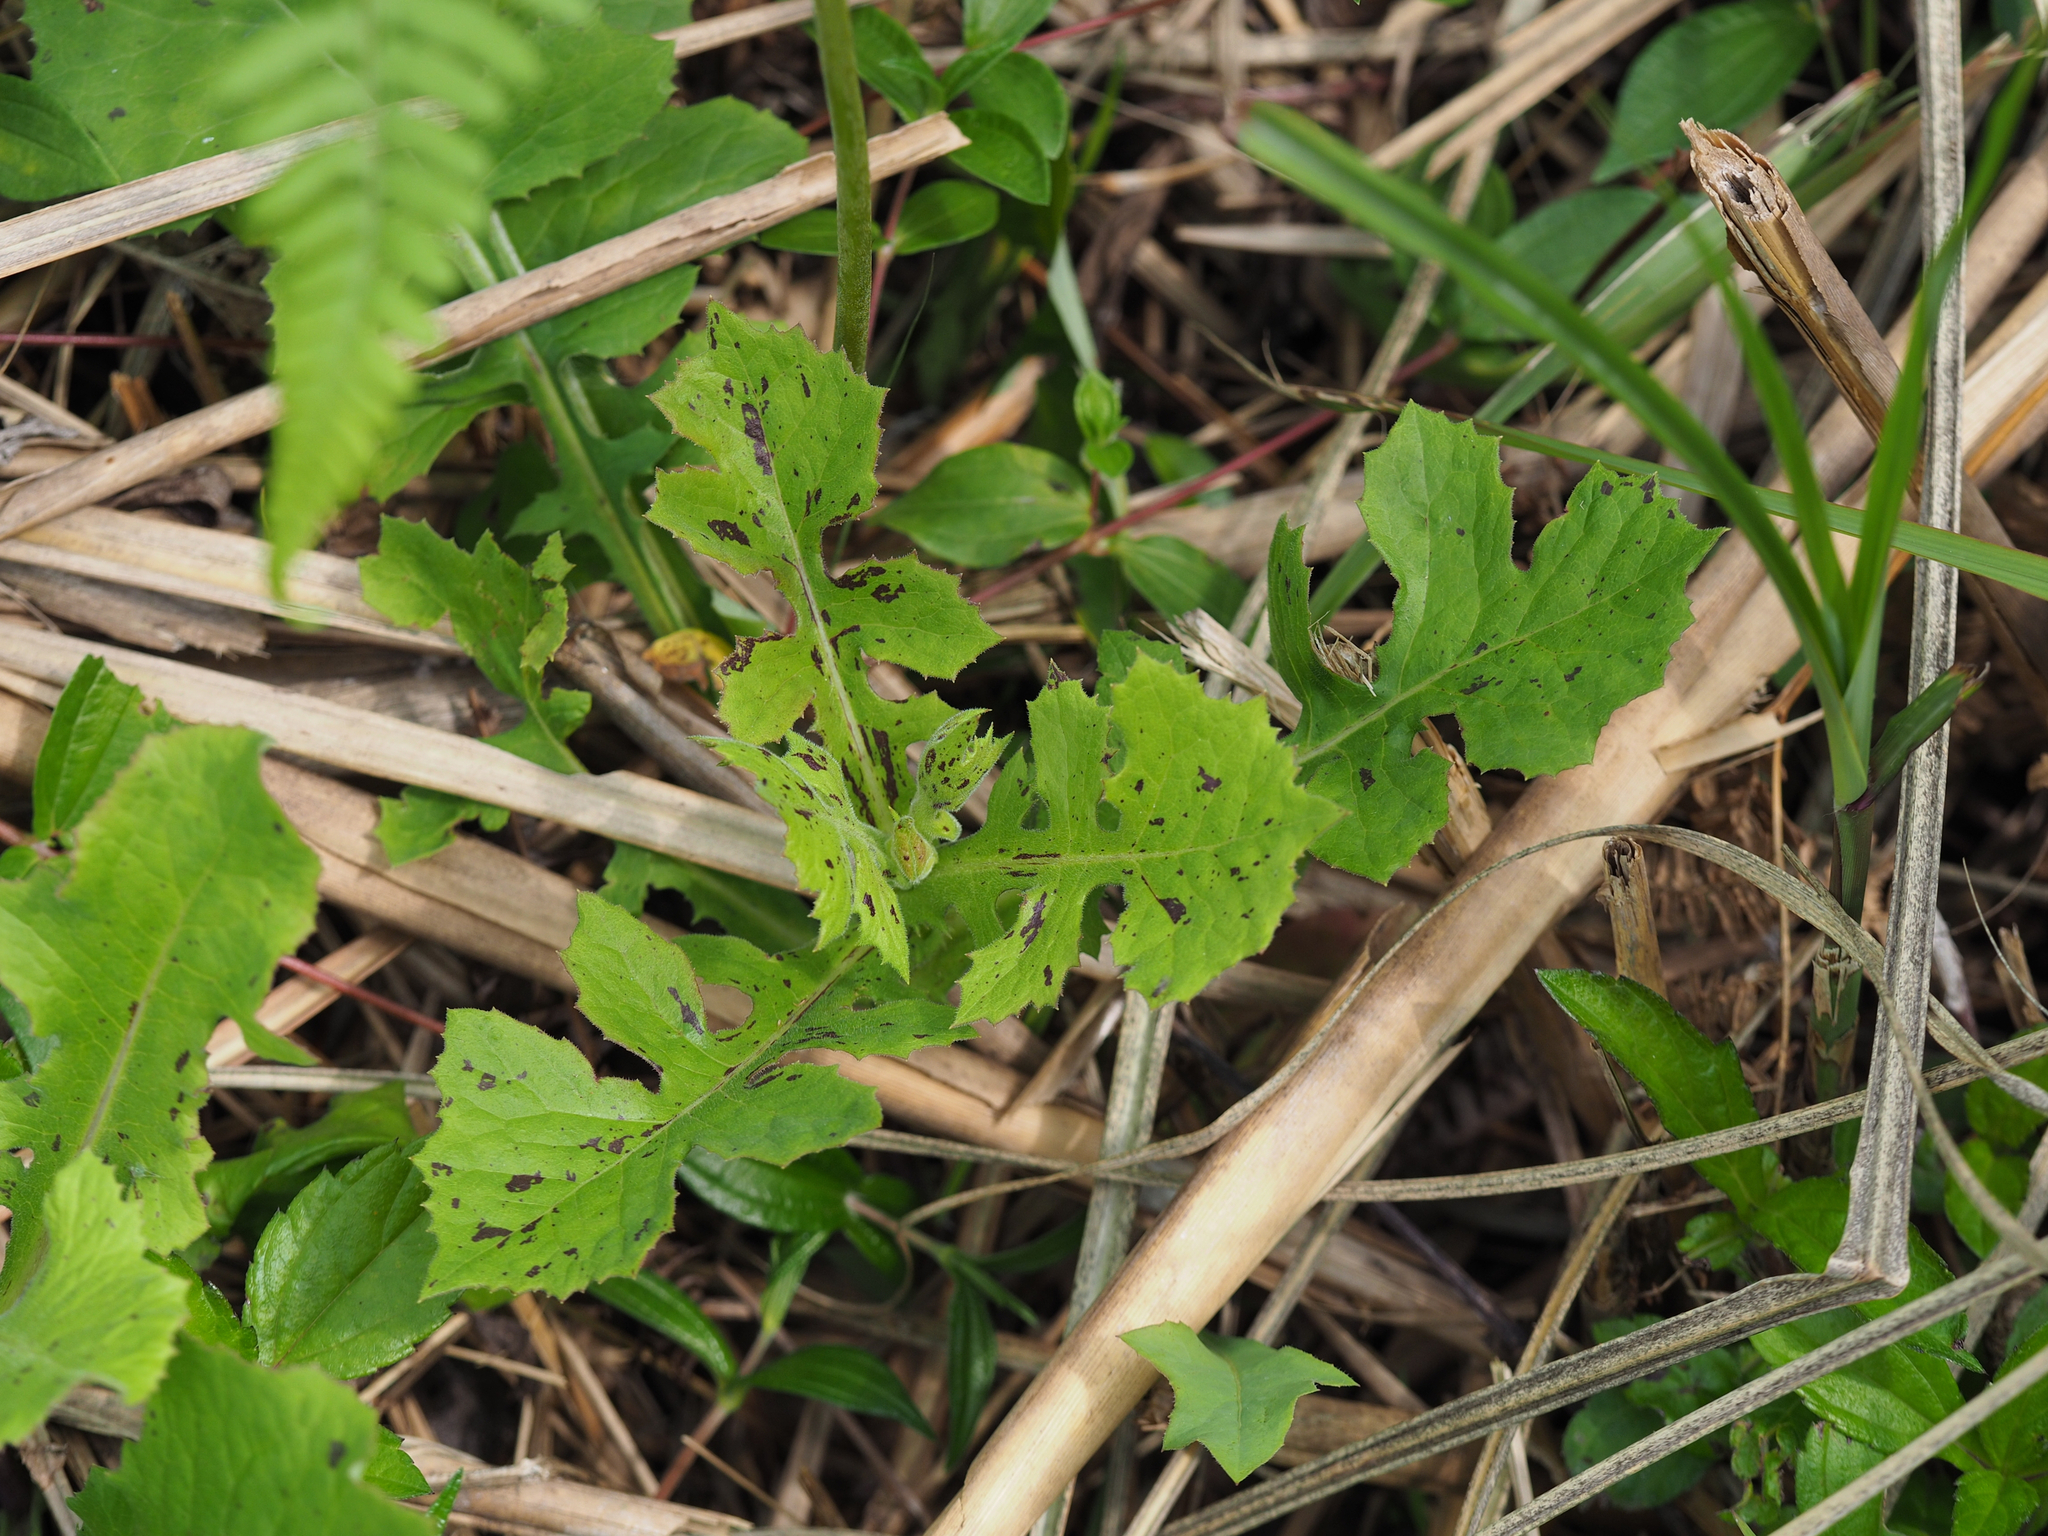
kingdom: Plantae
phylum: Tracheophyta
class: Magnoliopsida
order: Asterales
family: Asteraceae
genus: Sonchus
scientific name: Sonchus oleraceus
